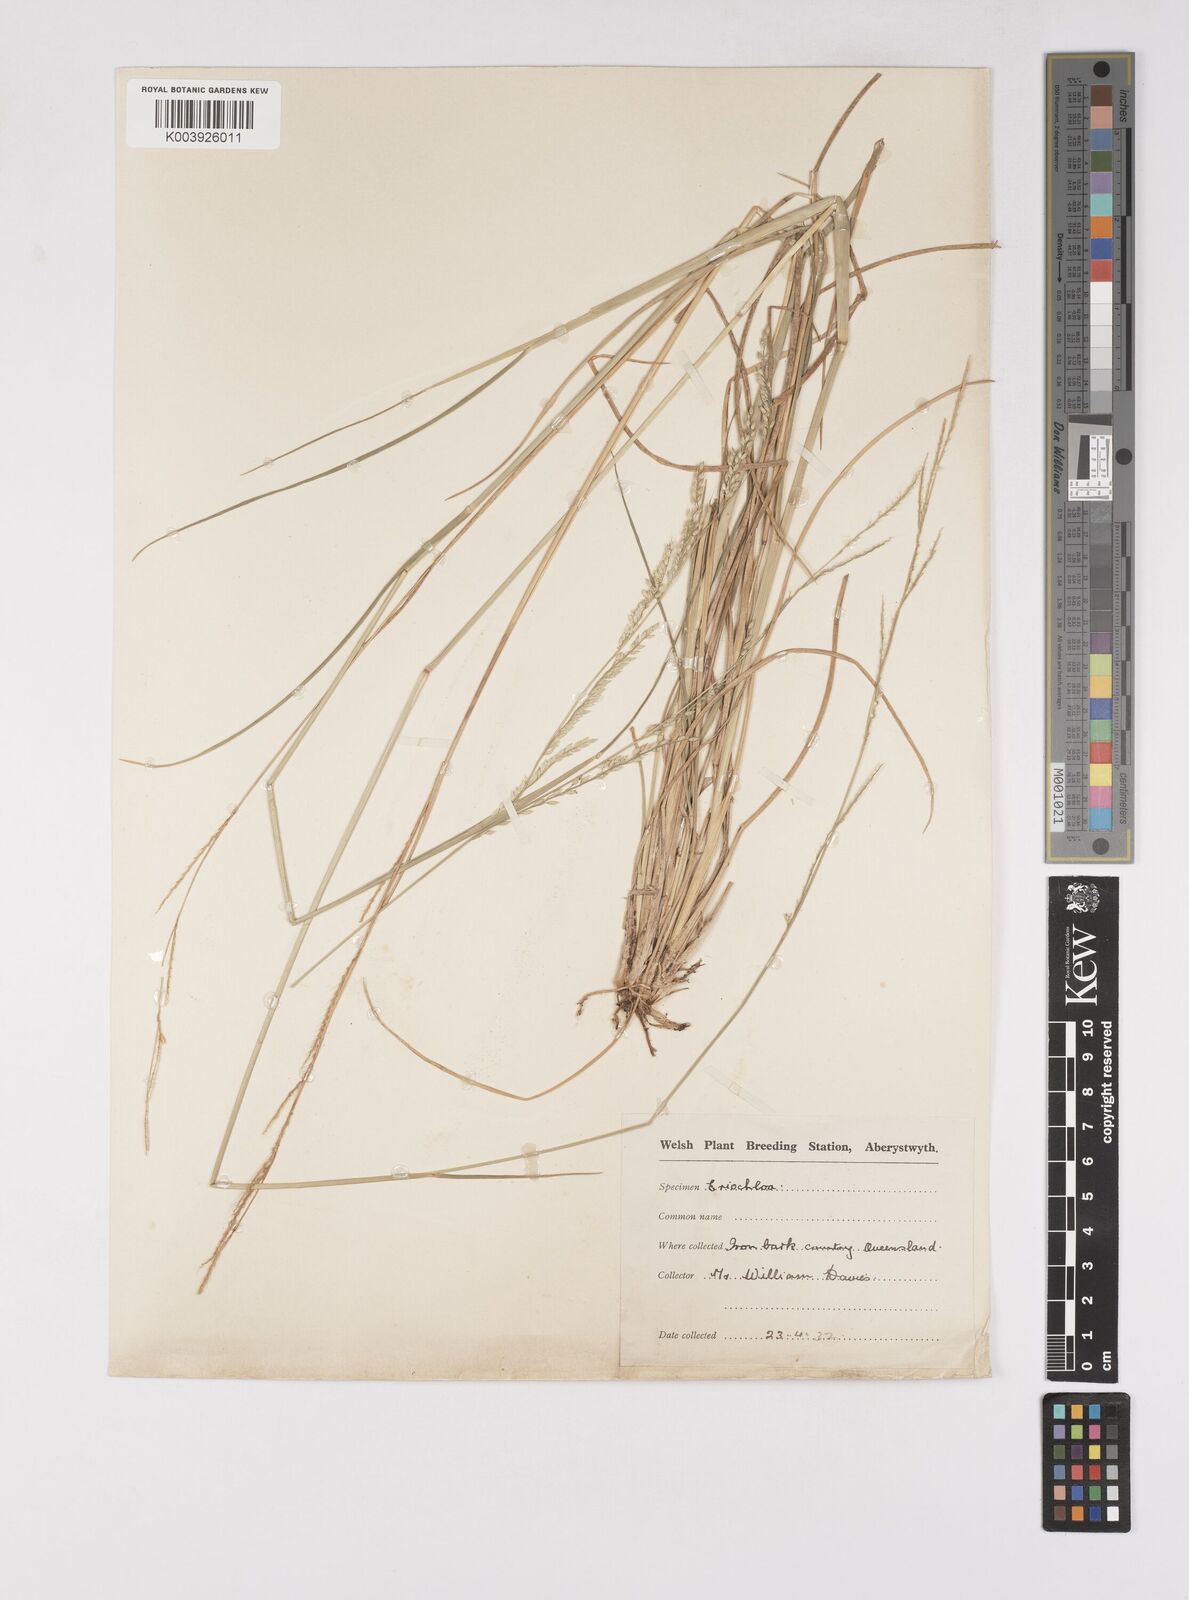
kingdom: Plantae
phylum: Tracheophyta
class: Liliopsida
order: Poales
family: Poaceae
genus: Eriochloa
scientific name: Eriochloa
